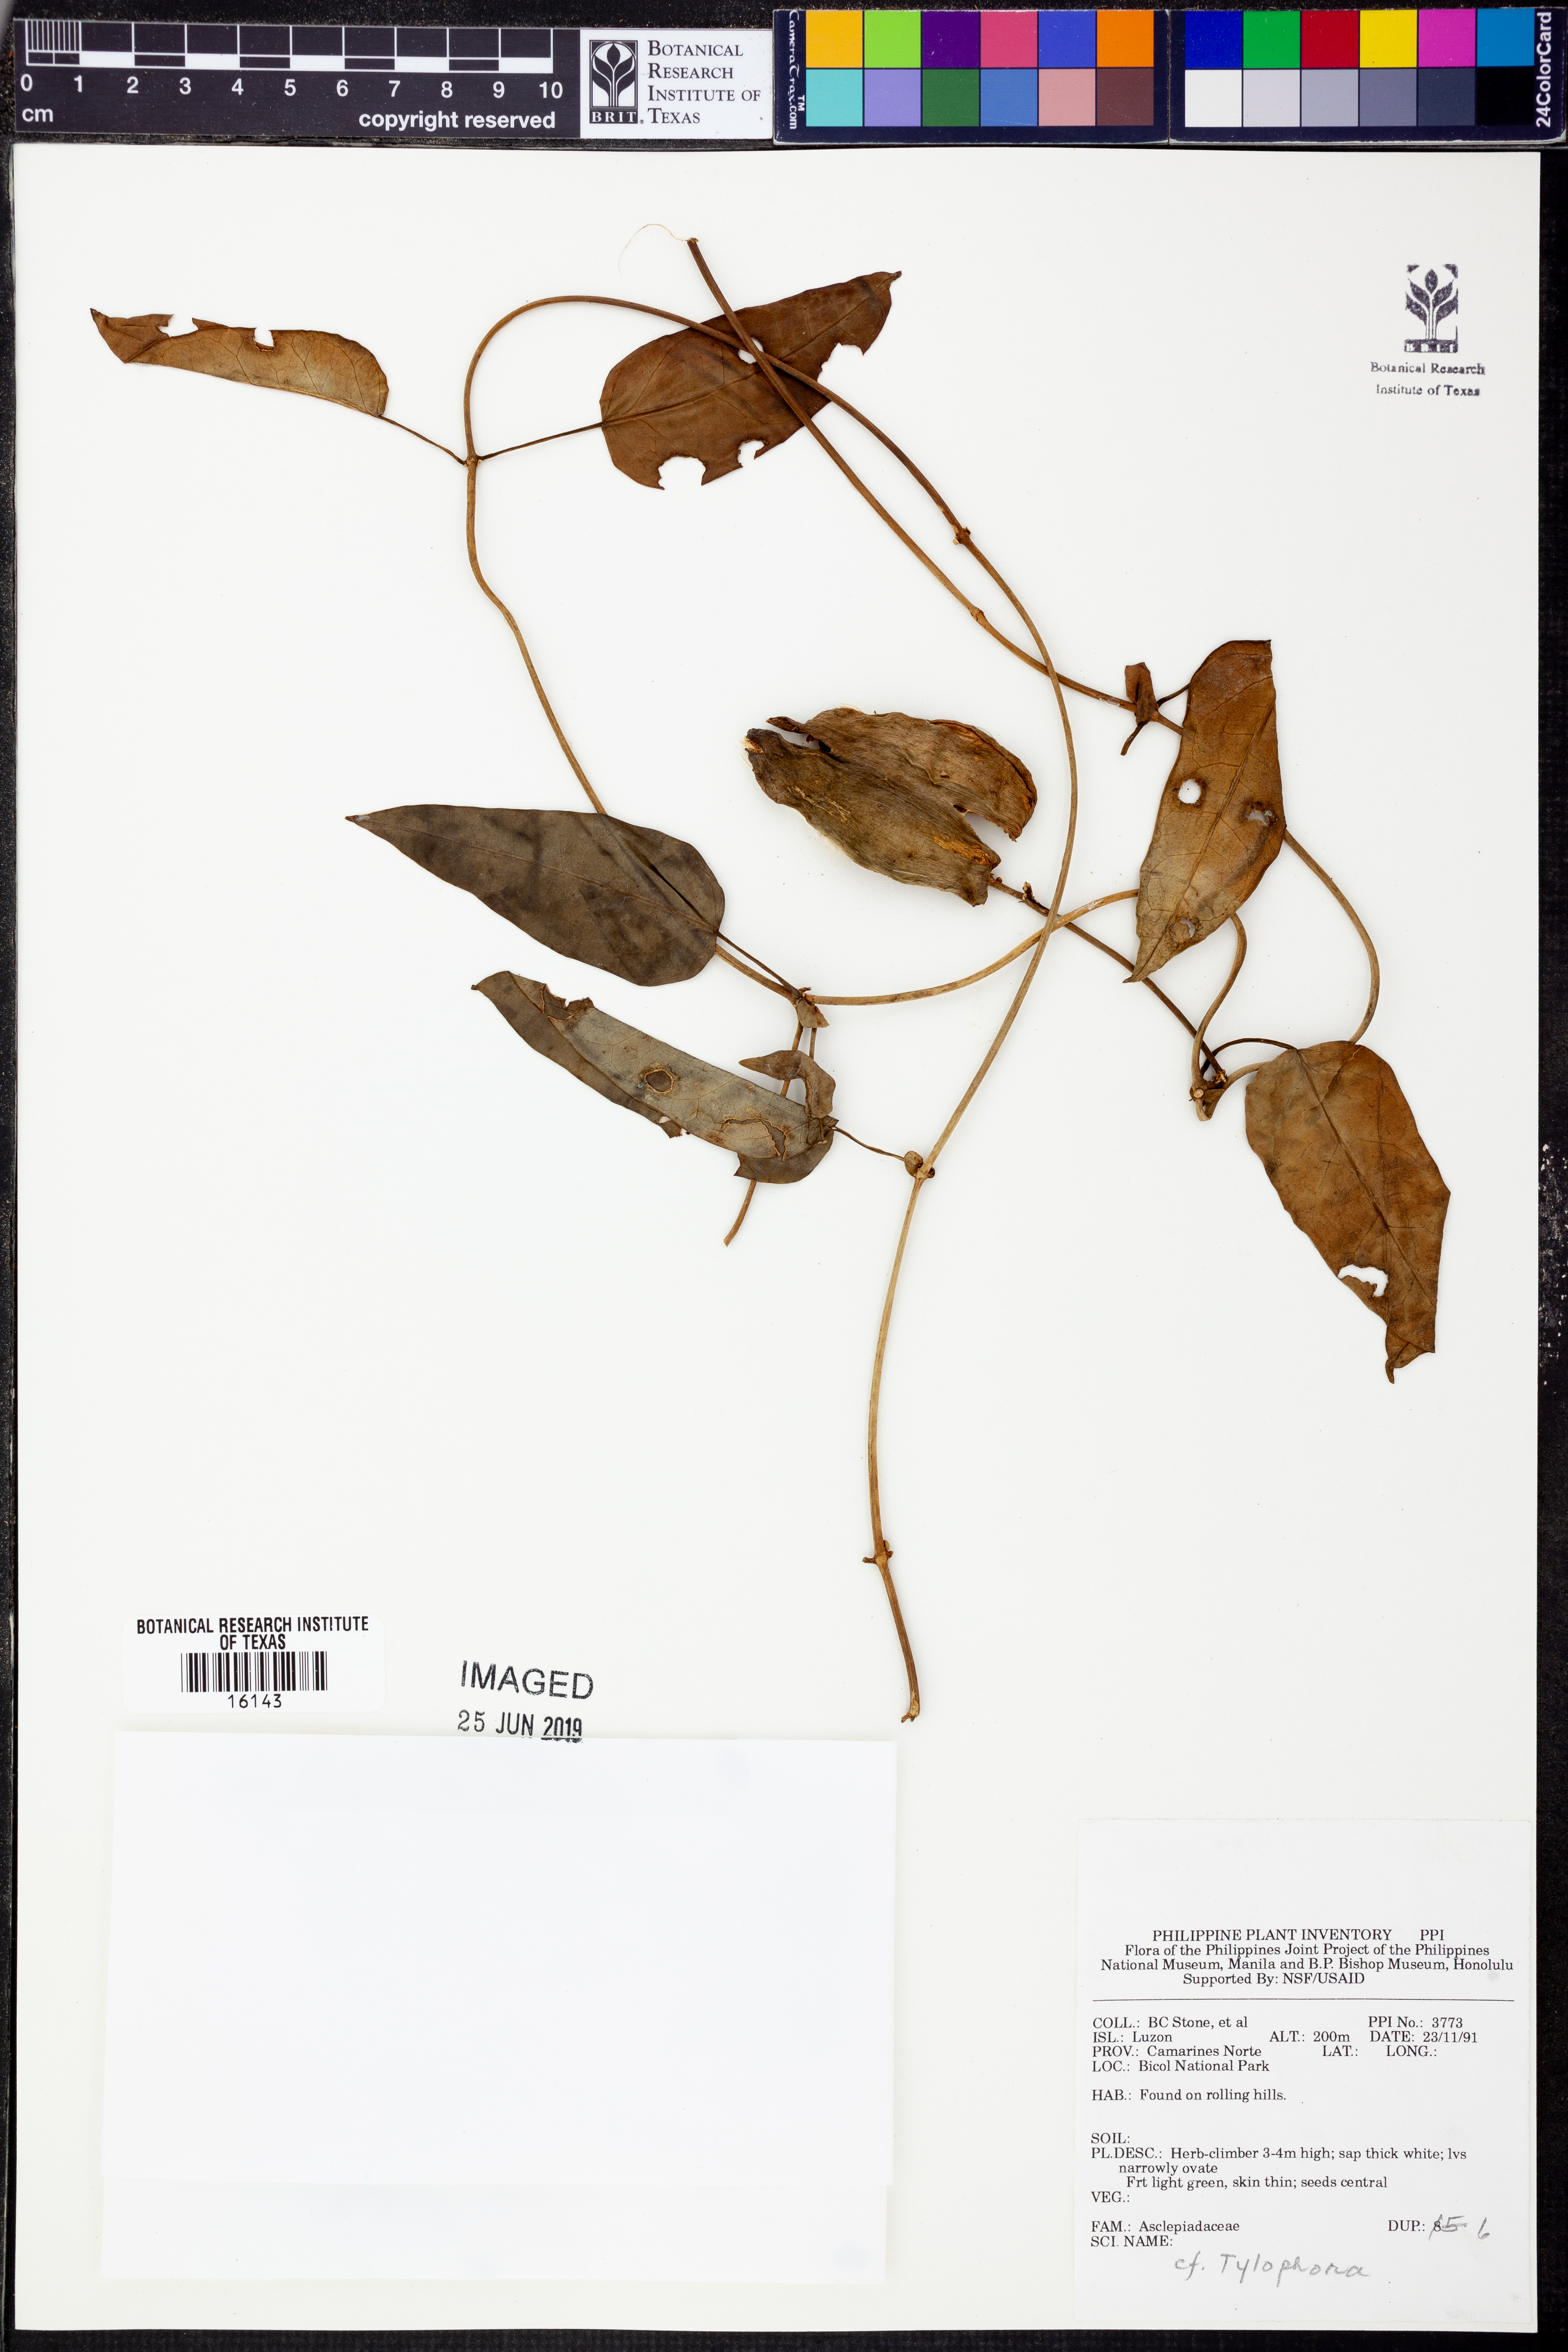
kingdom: Plantae
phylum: Tracheophyta
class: Magnoliopsida
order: Gentianales
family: Apocynaceae
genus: Vincetoxicum
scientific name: Vincetoxicum
